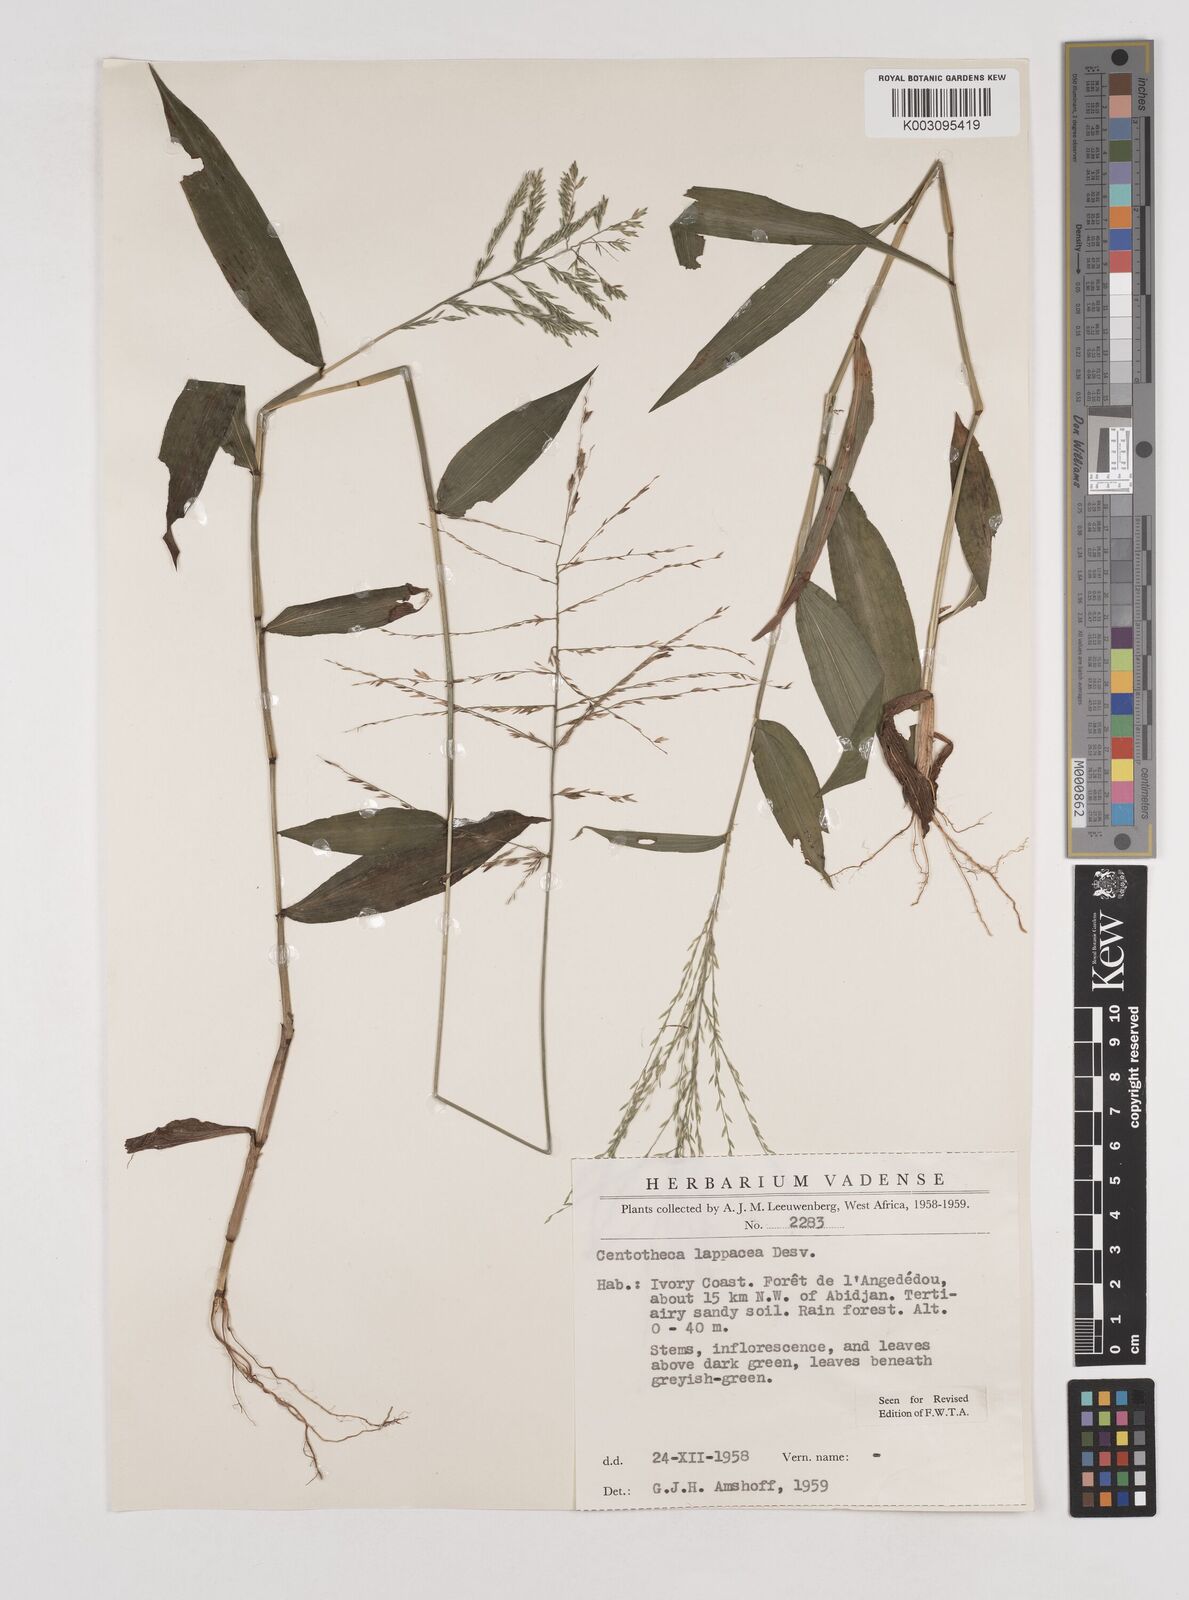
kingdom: Plantae
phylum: Tracheophyta
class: Liliopsida
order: Poales
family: Poaceae
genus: Centotheca
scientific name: Centotheca lappacea
